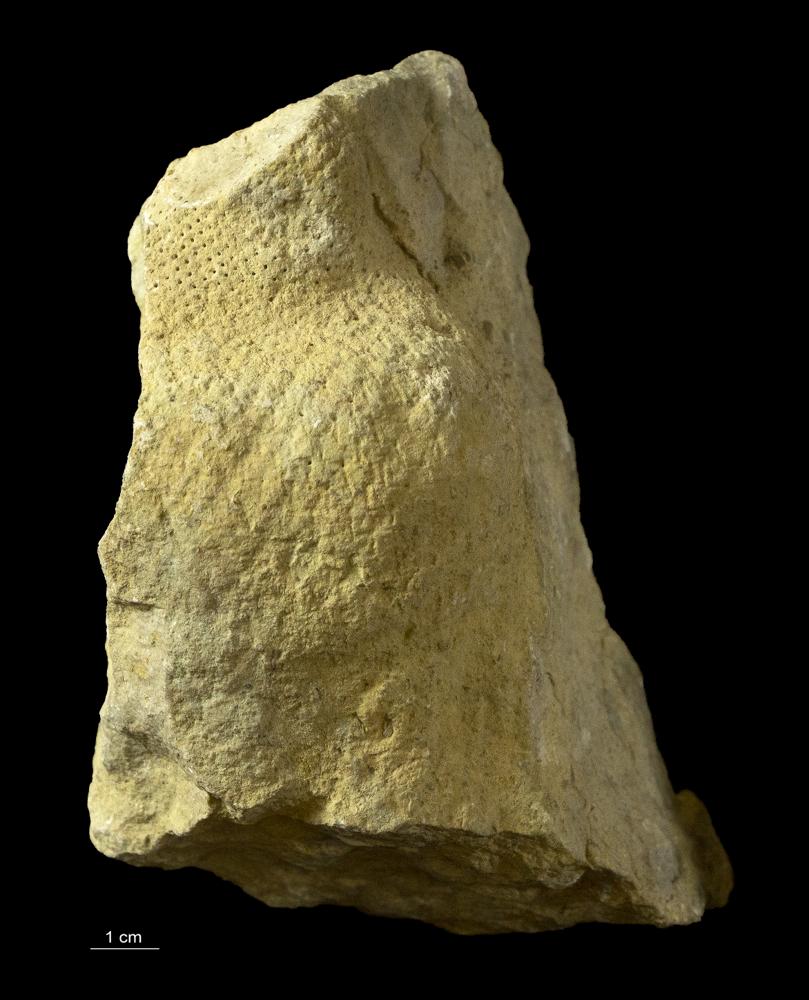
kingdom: Plantae
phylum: Chlorophyta
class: Chlorophyceae
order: Receptaculitales
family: Receptaculitaceae
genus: Ischadites
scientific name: Ischadites
